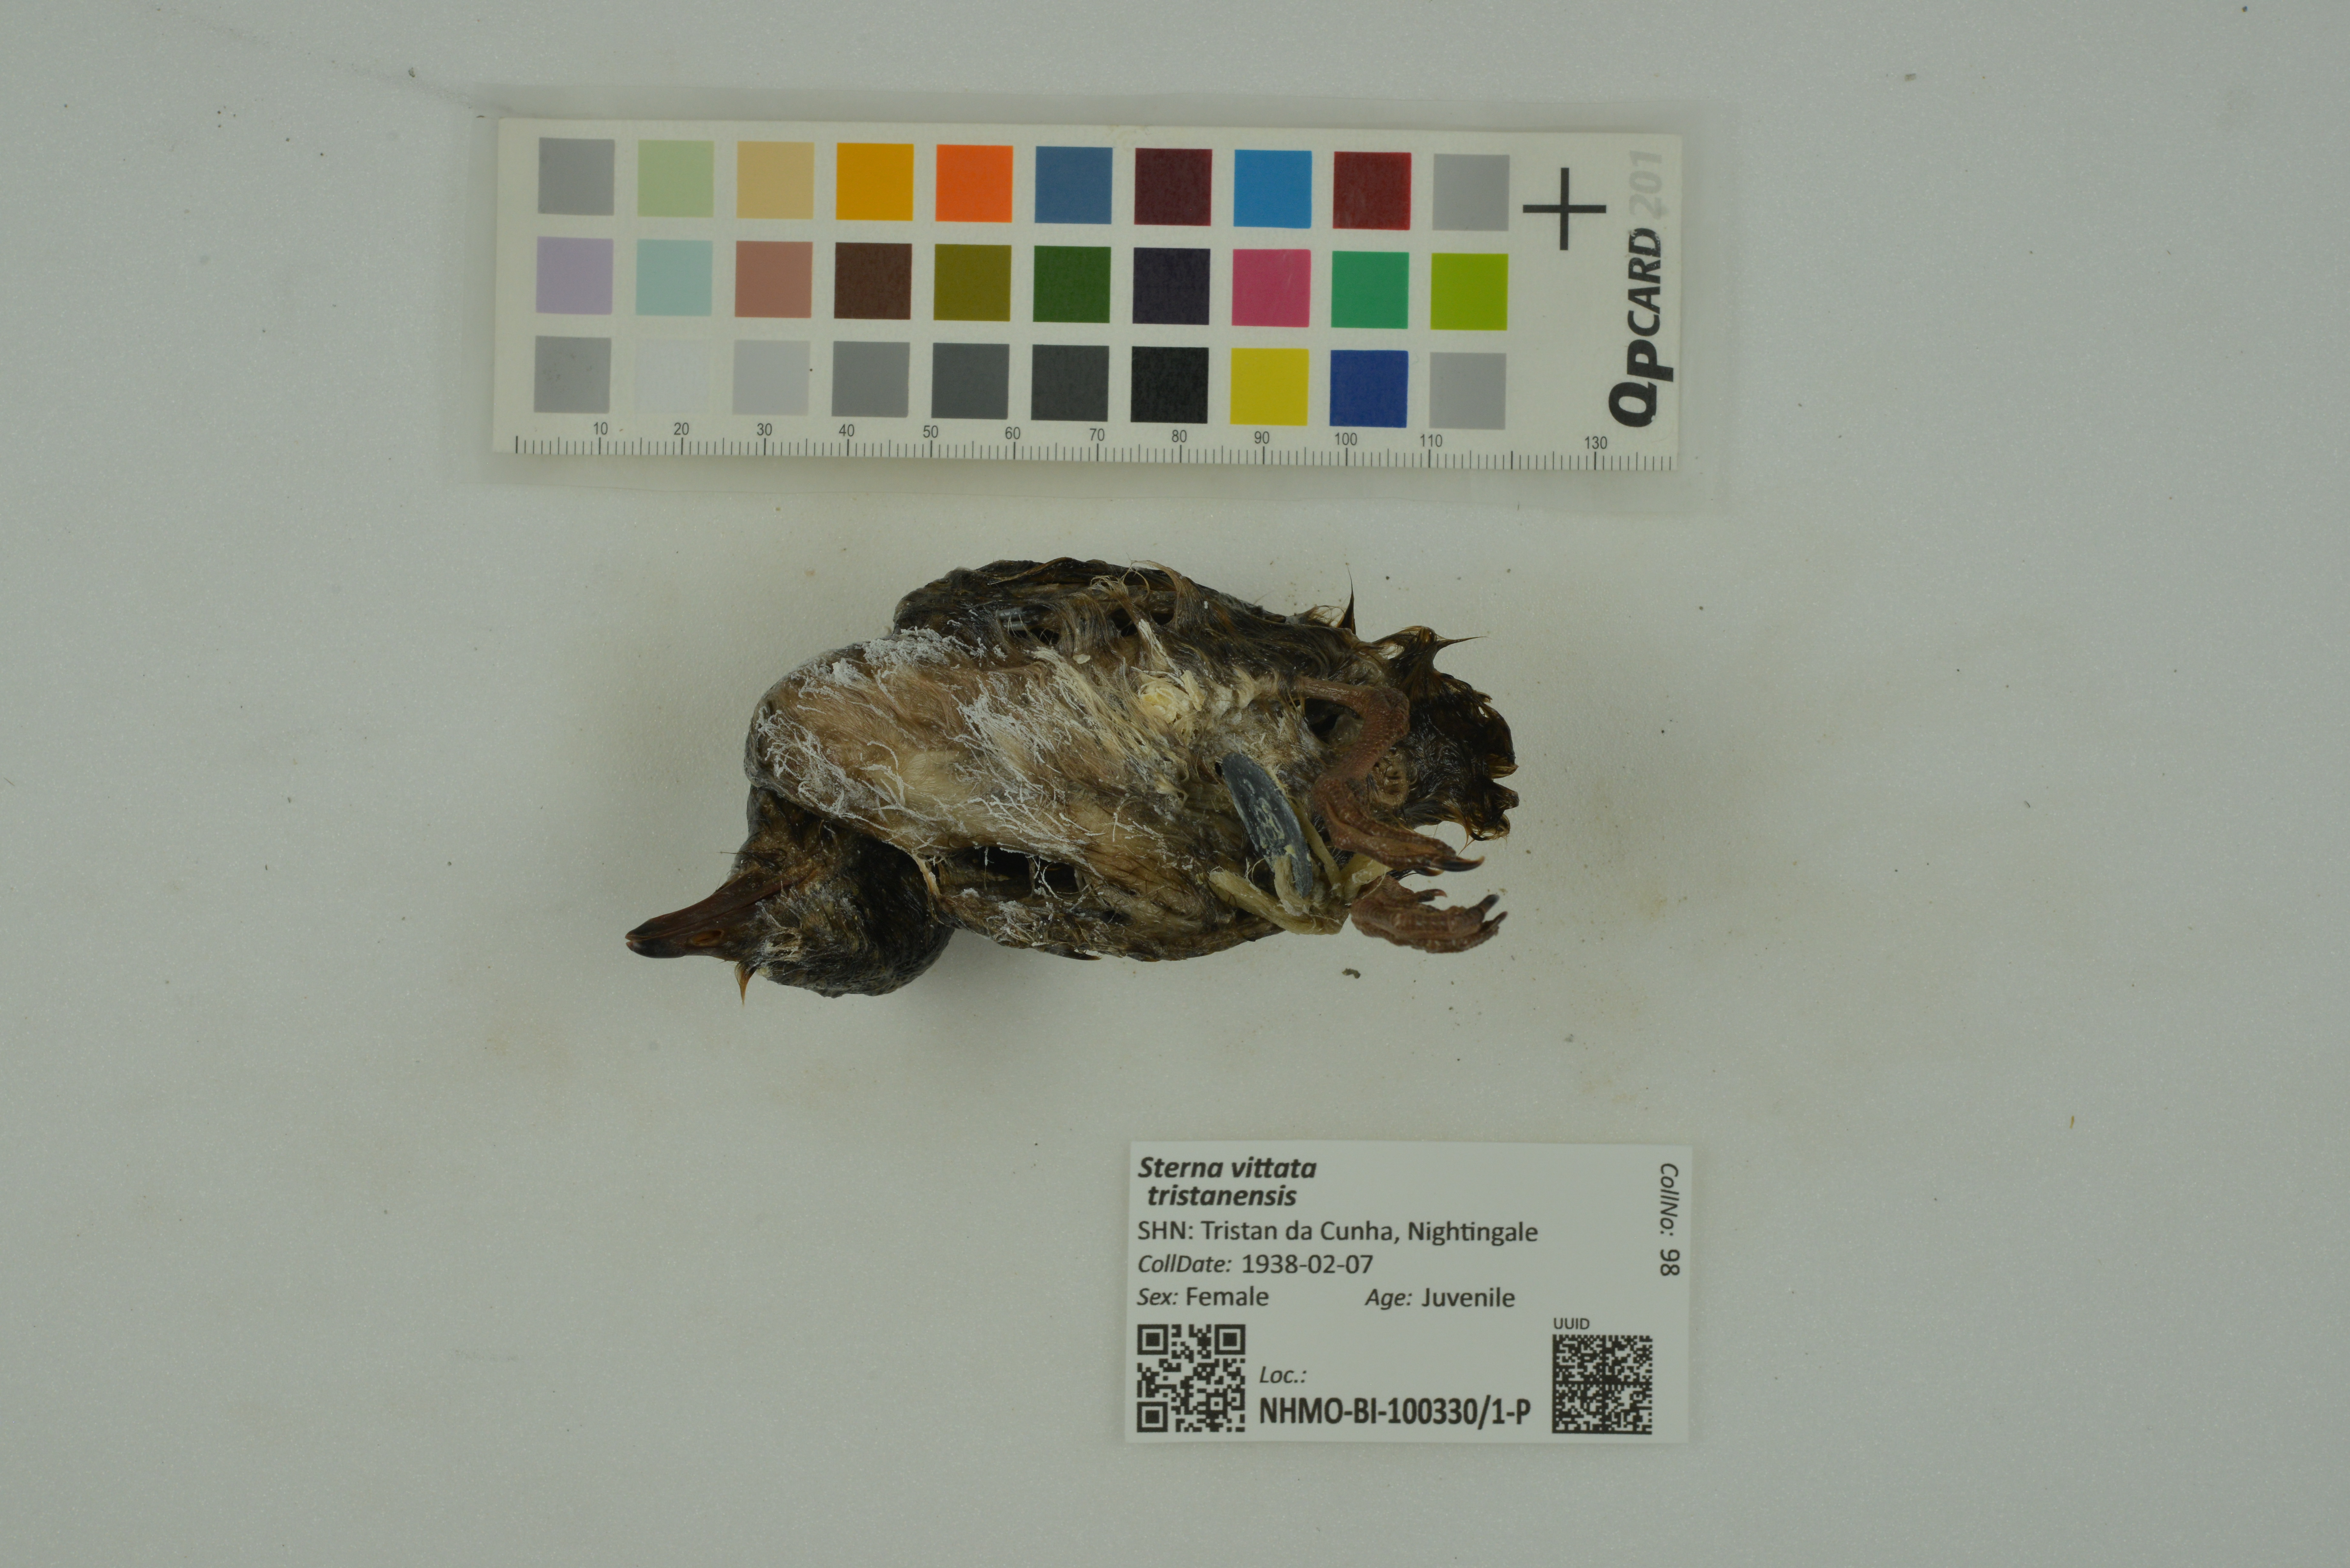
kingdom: Animalia
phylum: Chordata
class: Aves
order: Charadriiformes
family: Laridae
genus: Sterna
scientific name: Sterna vittata
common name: Antarctic tern
